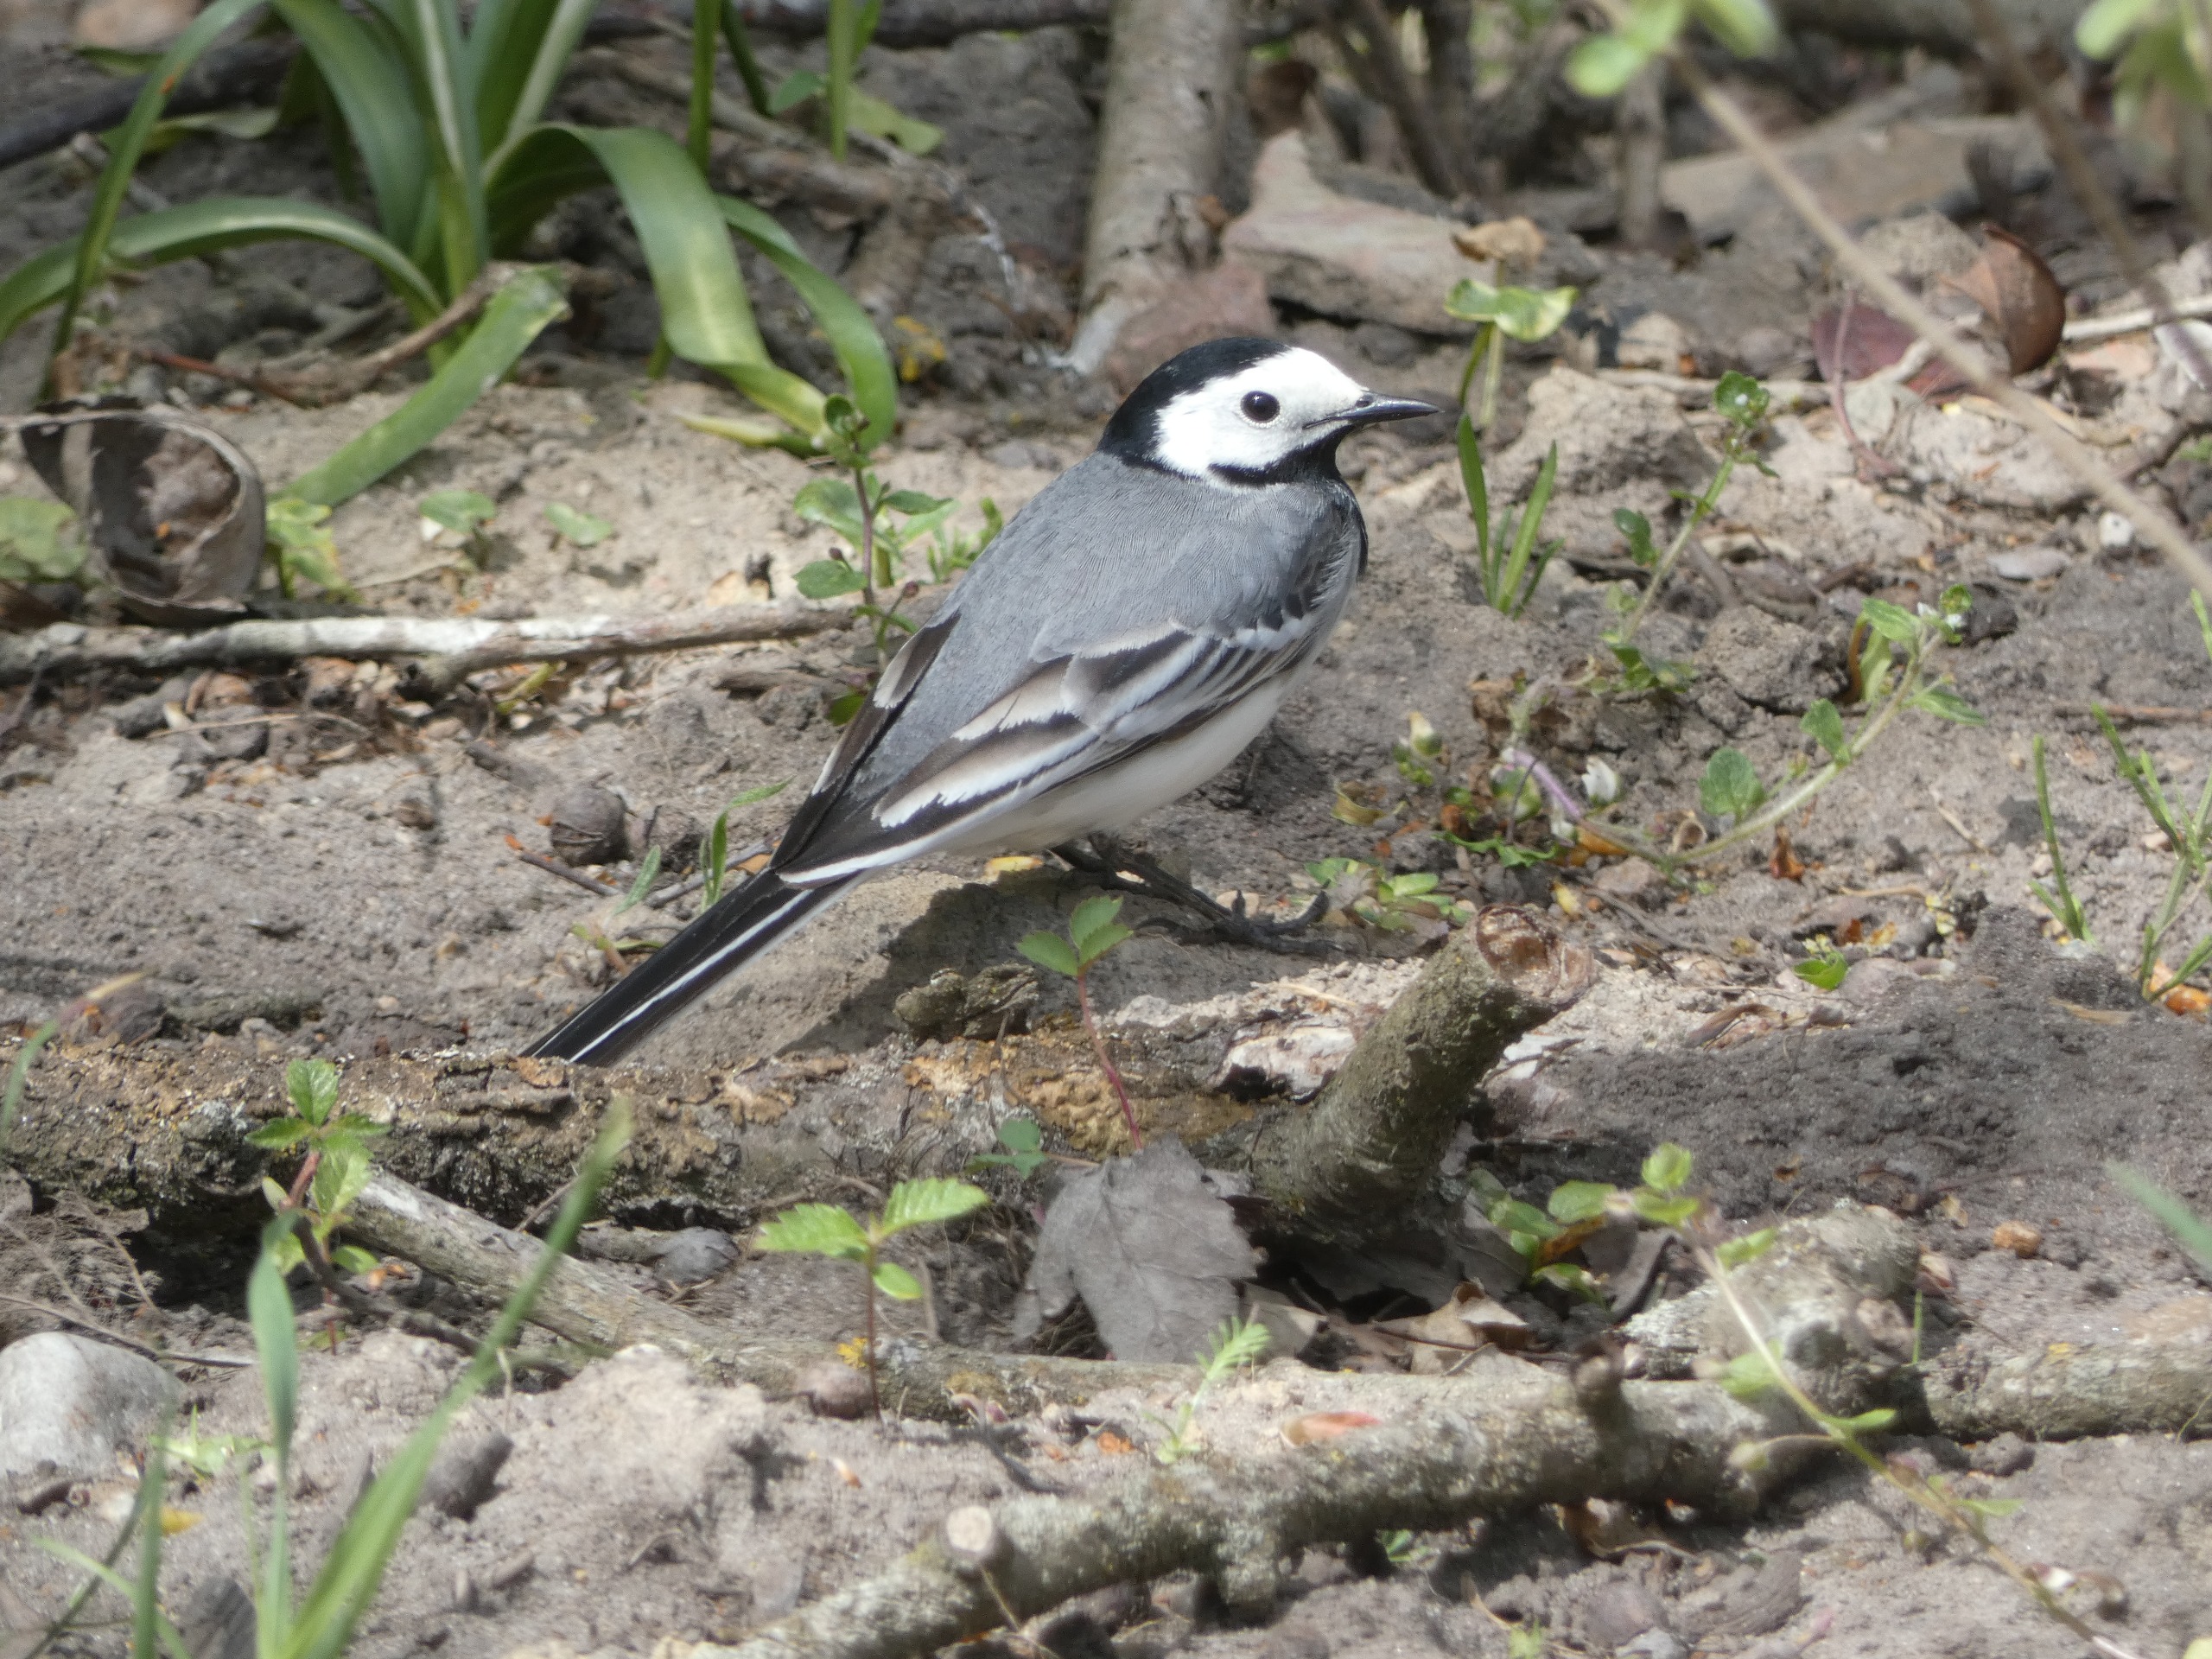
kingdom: Animalia
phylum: Chordata
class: Aves
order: Passeriformes
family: Motacillidae
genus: Motacilla
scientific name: Motacilla alba
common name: Hvid vipstjert
